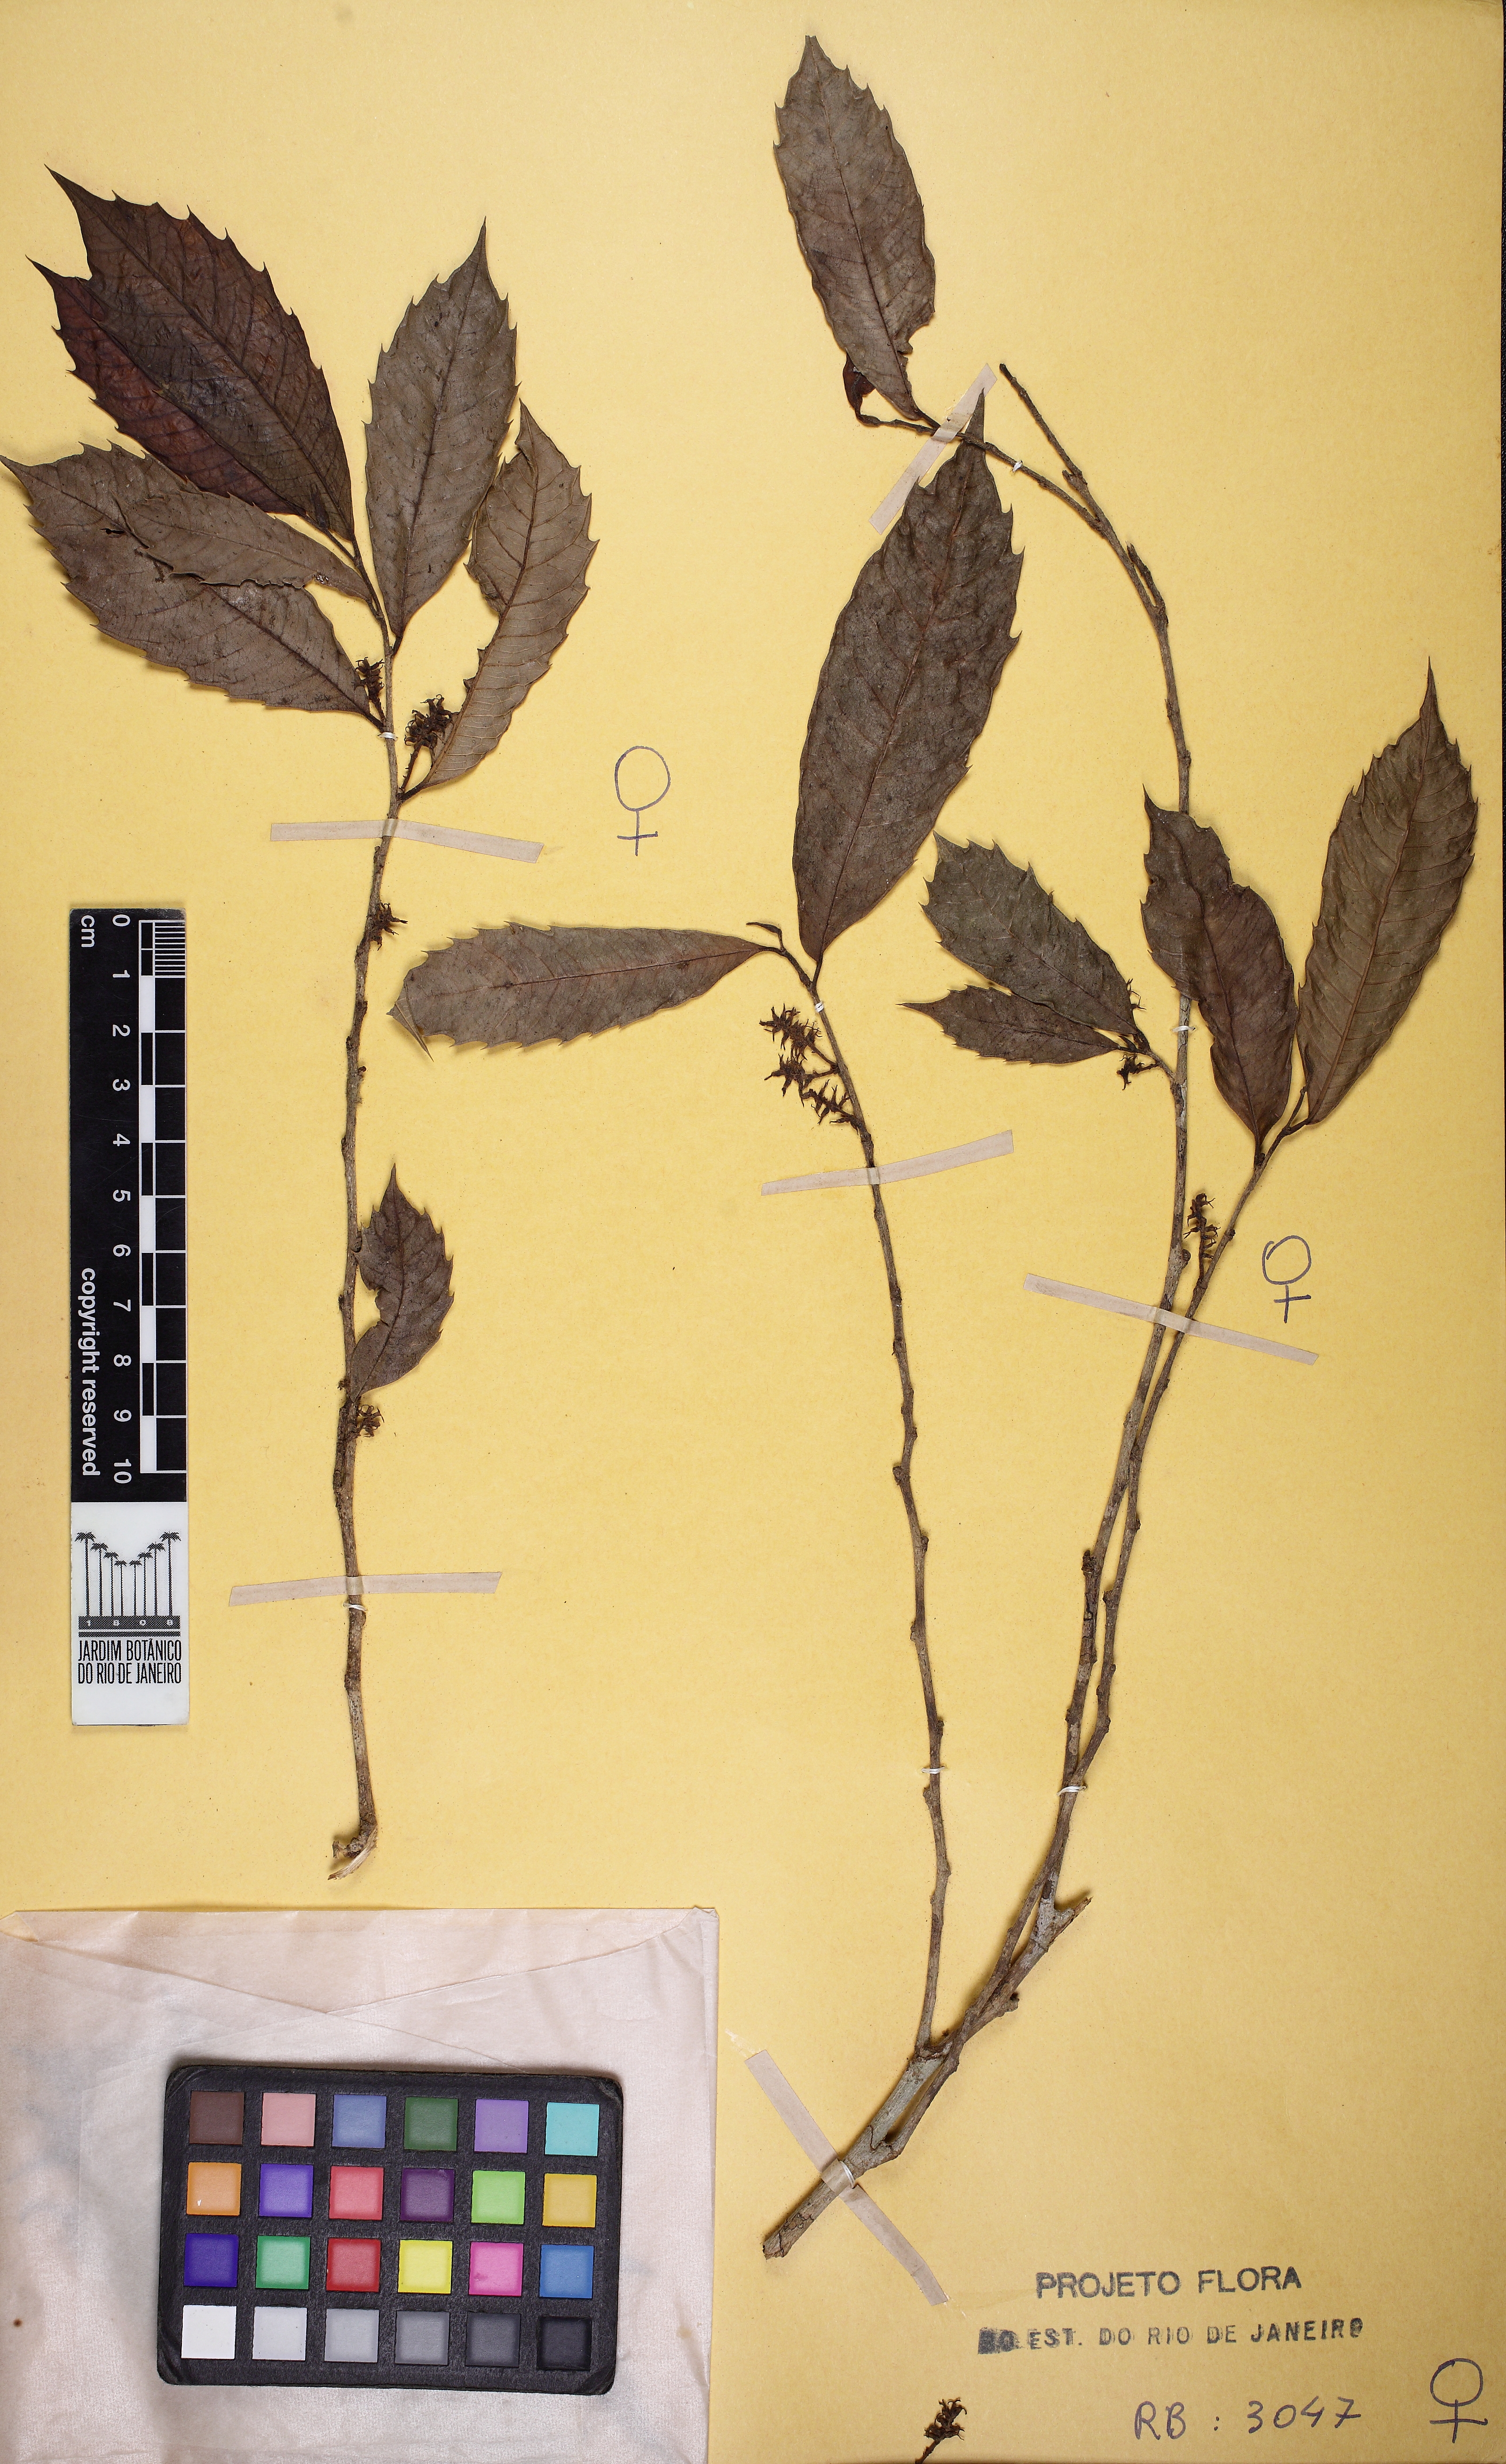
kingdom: Plantae
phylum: Tracheophyta
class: Magnoliopsida
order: Rosales
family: Moraceae
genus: Sorocea
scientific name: Sorocea bonplandii
